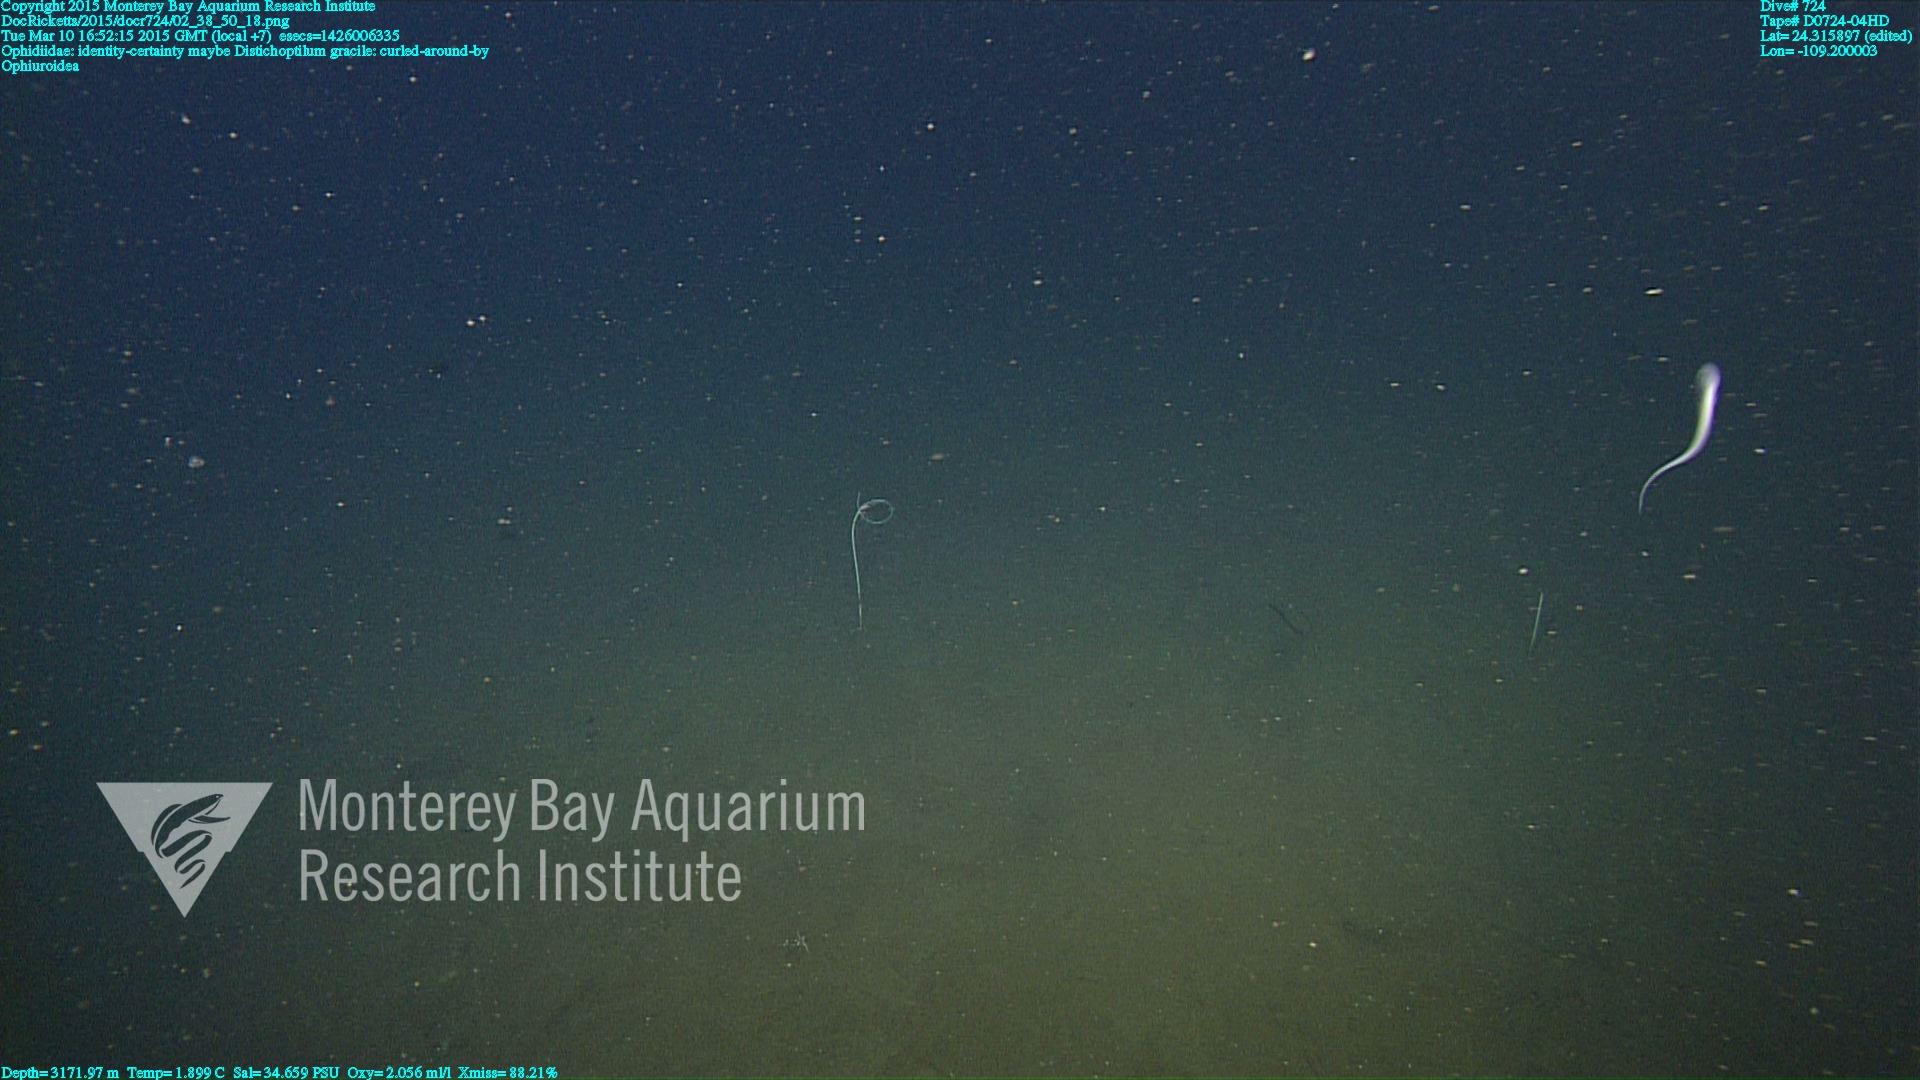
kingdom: Animalia
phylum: Cnidaria
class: Anthozoa
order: Scleralcyonacea
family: Protoptilidae
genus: Distichoptilum
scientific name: Distichoptilum gracile
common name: Slender sea pen
